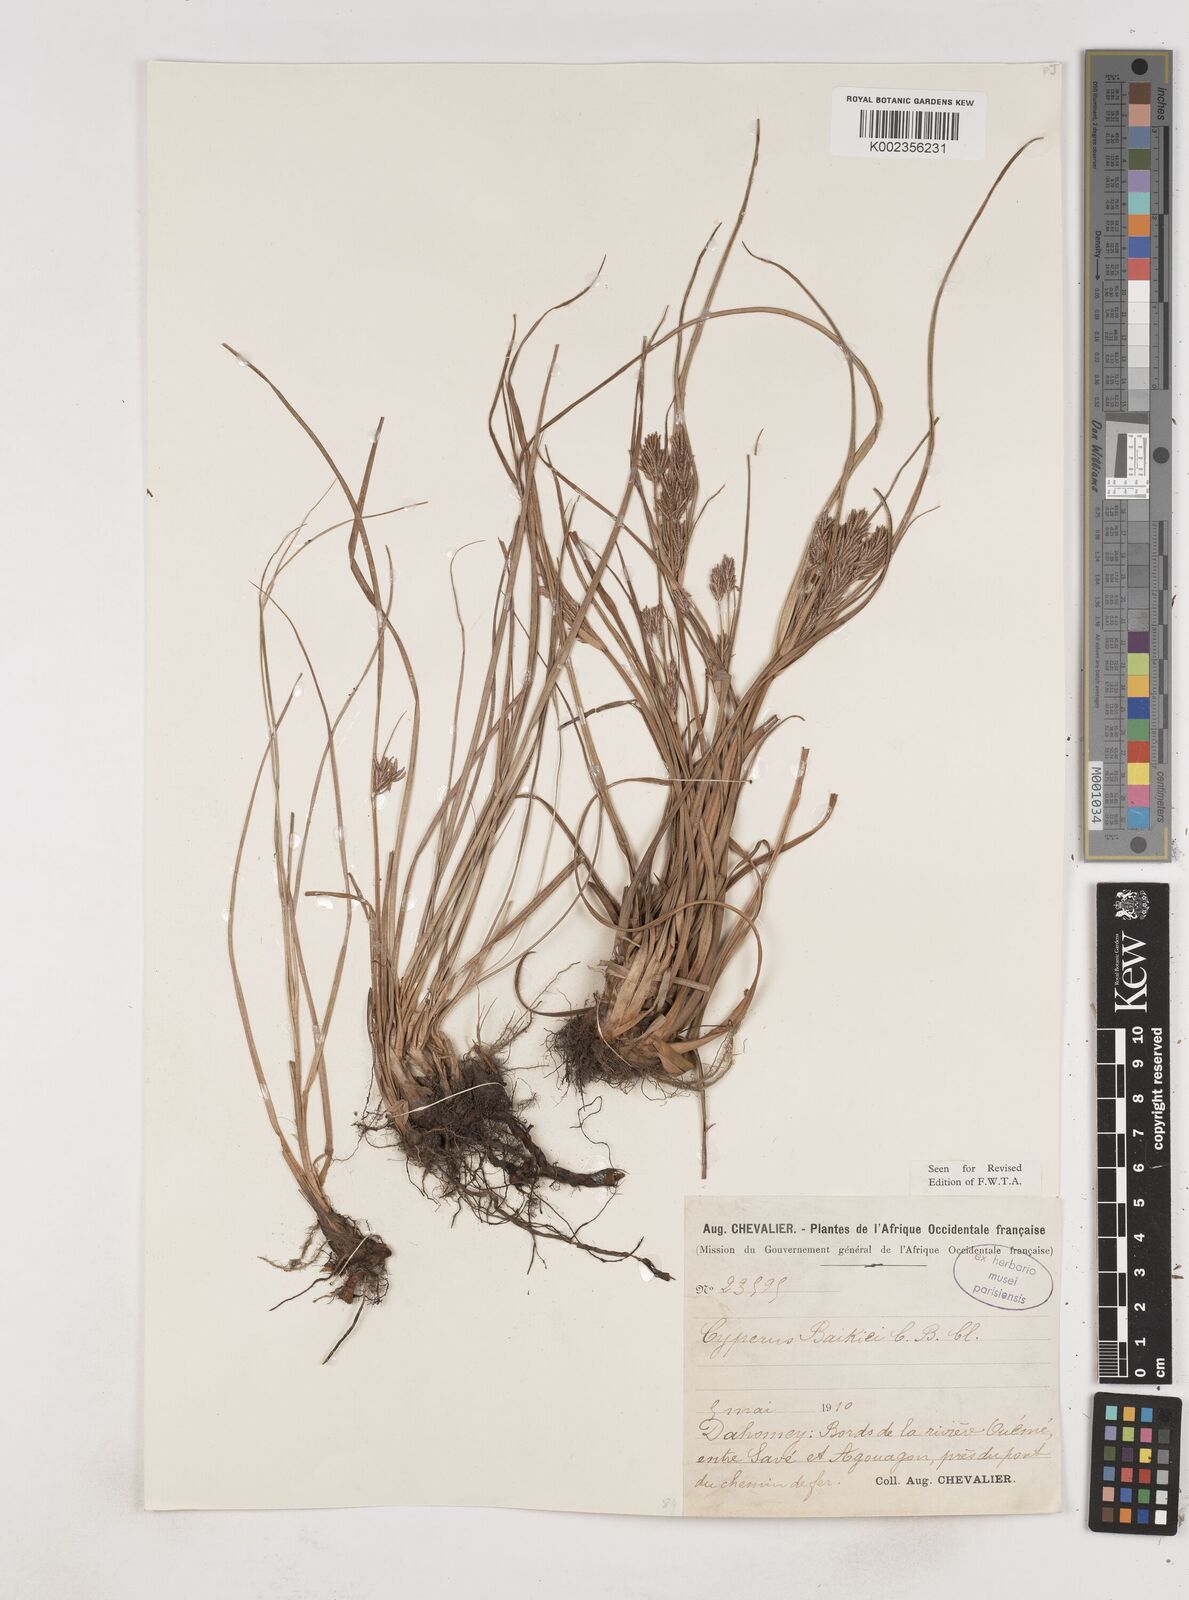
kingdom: Plantae
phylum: Tracheophyta
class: Liliopsida
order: Poales
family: Cyperaceae
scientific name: Cyperaceae
